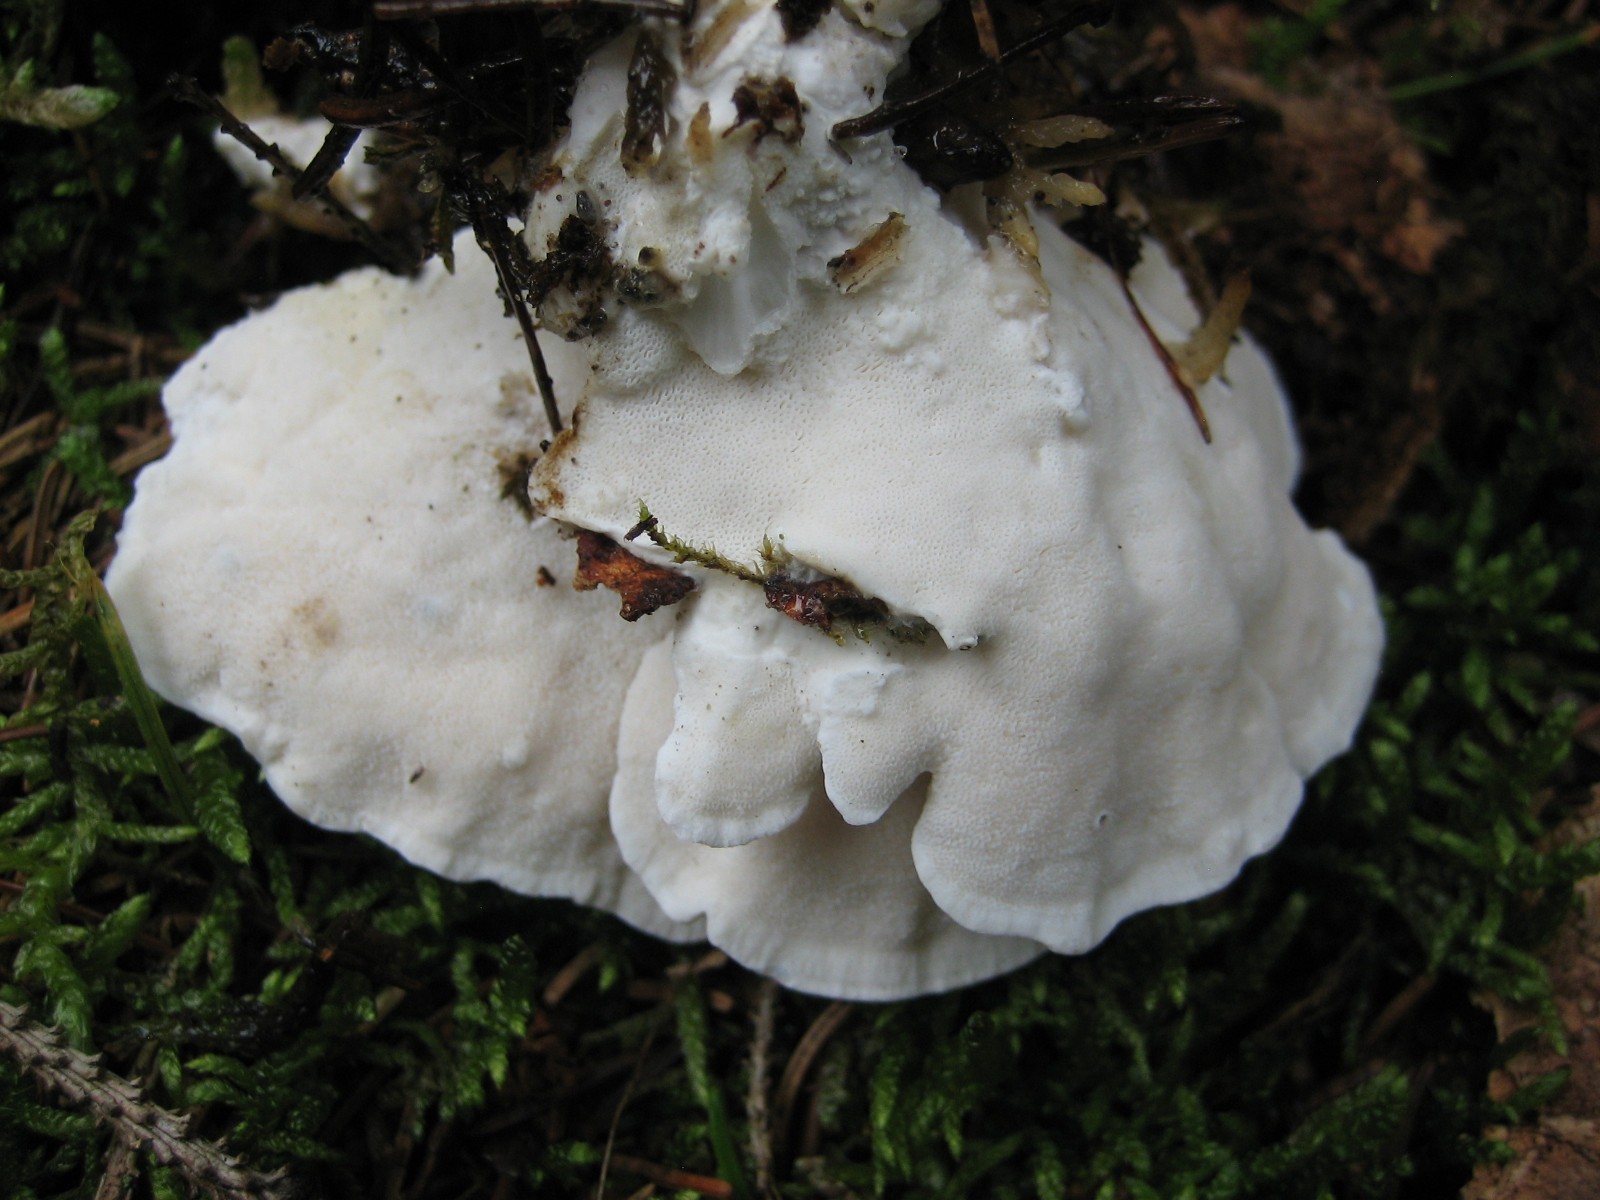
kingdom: Fungi
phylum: Basidiomycota
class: Agaricomycetes
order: Polyporales
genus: Amaropostia
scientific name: Amaropostia stiptica
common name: bitter kødporesvamp
